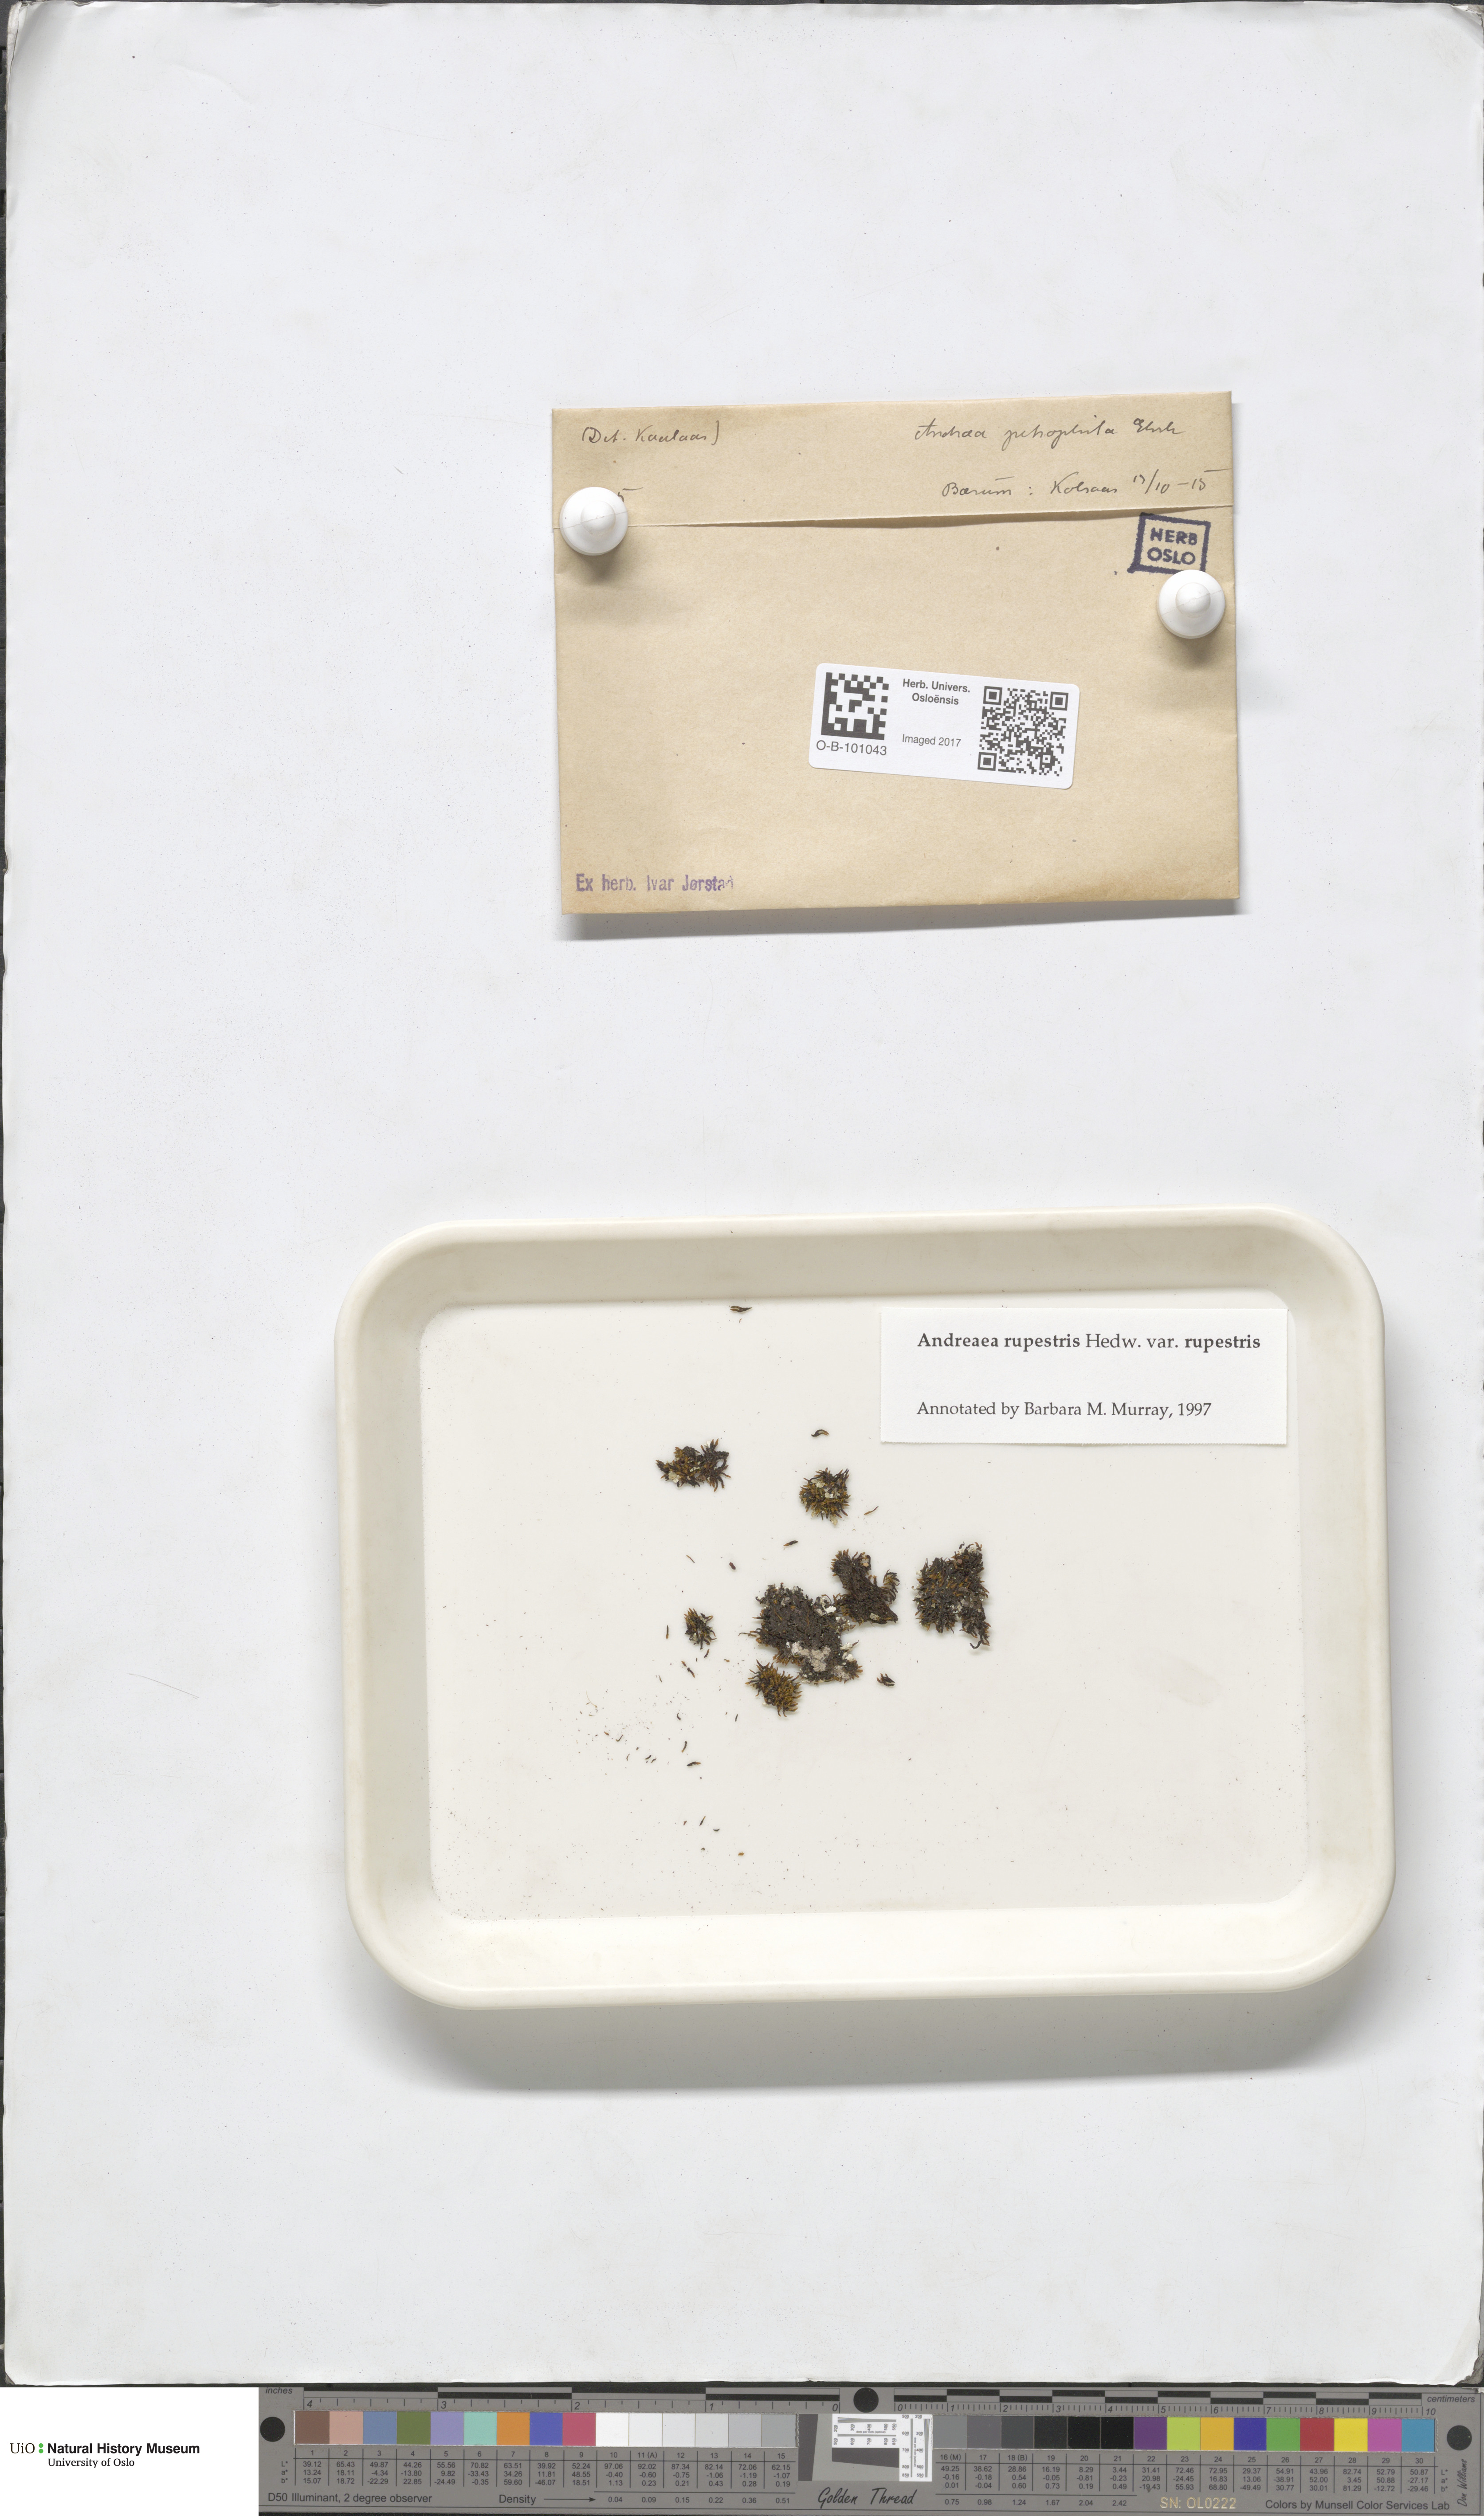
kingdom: Plantae
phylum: Bryophyta
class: Andreaeopsida
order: Andreaeales
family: Andreaeaceae
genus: Andreaea
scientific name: Andreaea rupestris
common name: Black rock moss
